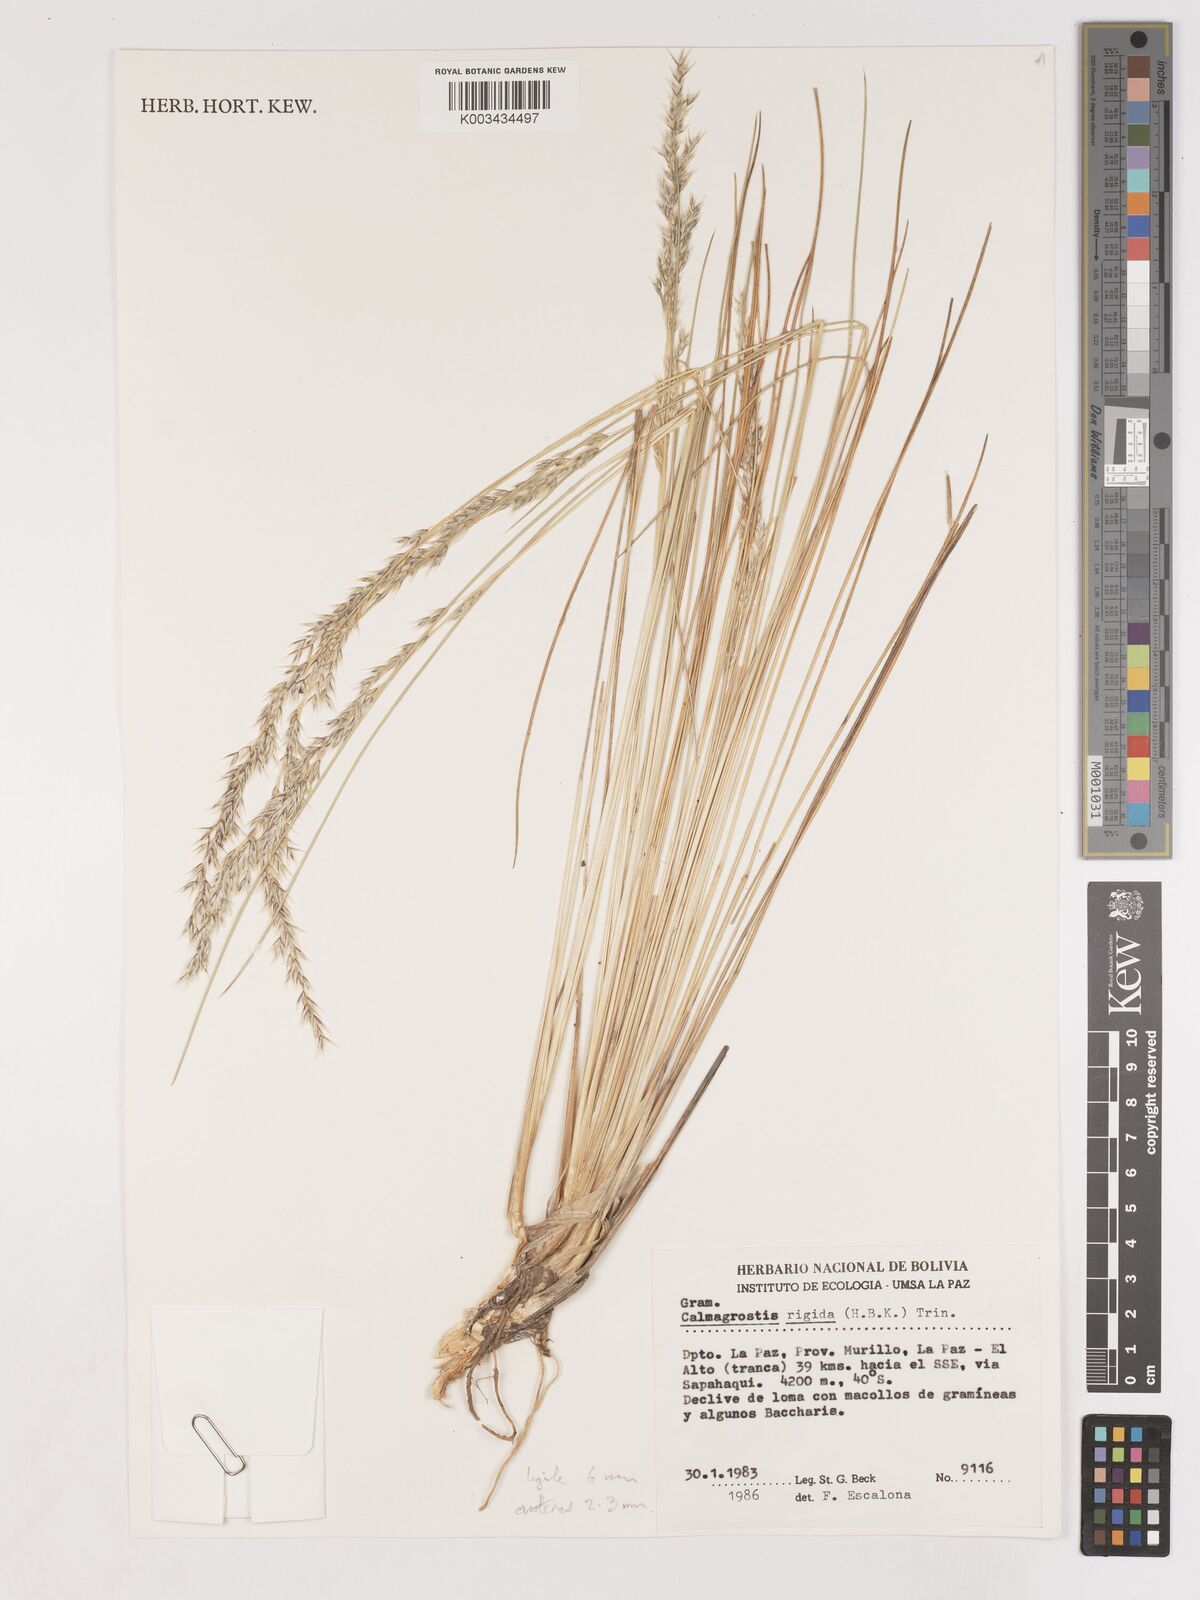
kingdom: Plantae
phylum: Tracheophyta
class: Liliopsida
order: Poales
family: Poaceae
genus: Cinnagrostis
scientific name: Cinnagrostis rigida
